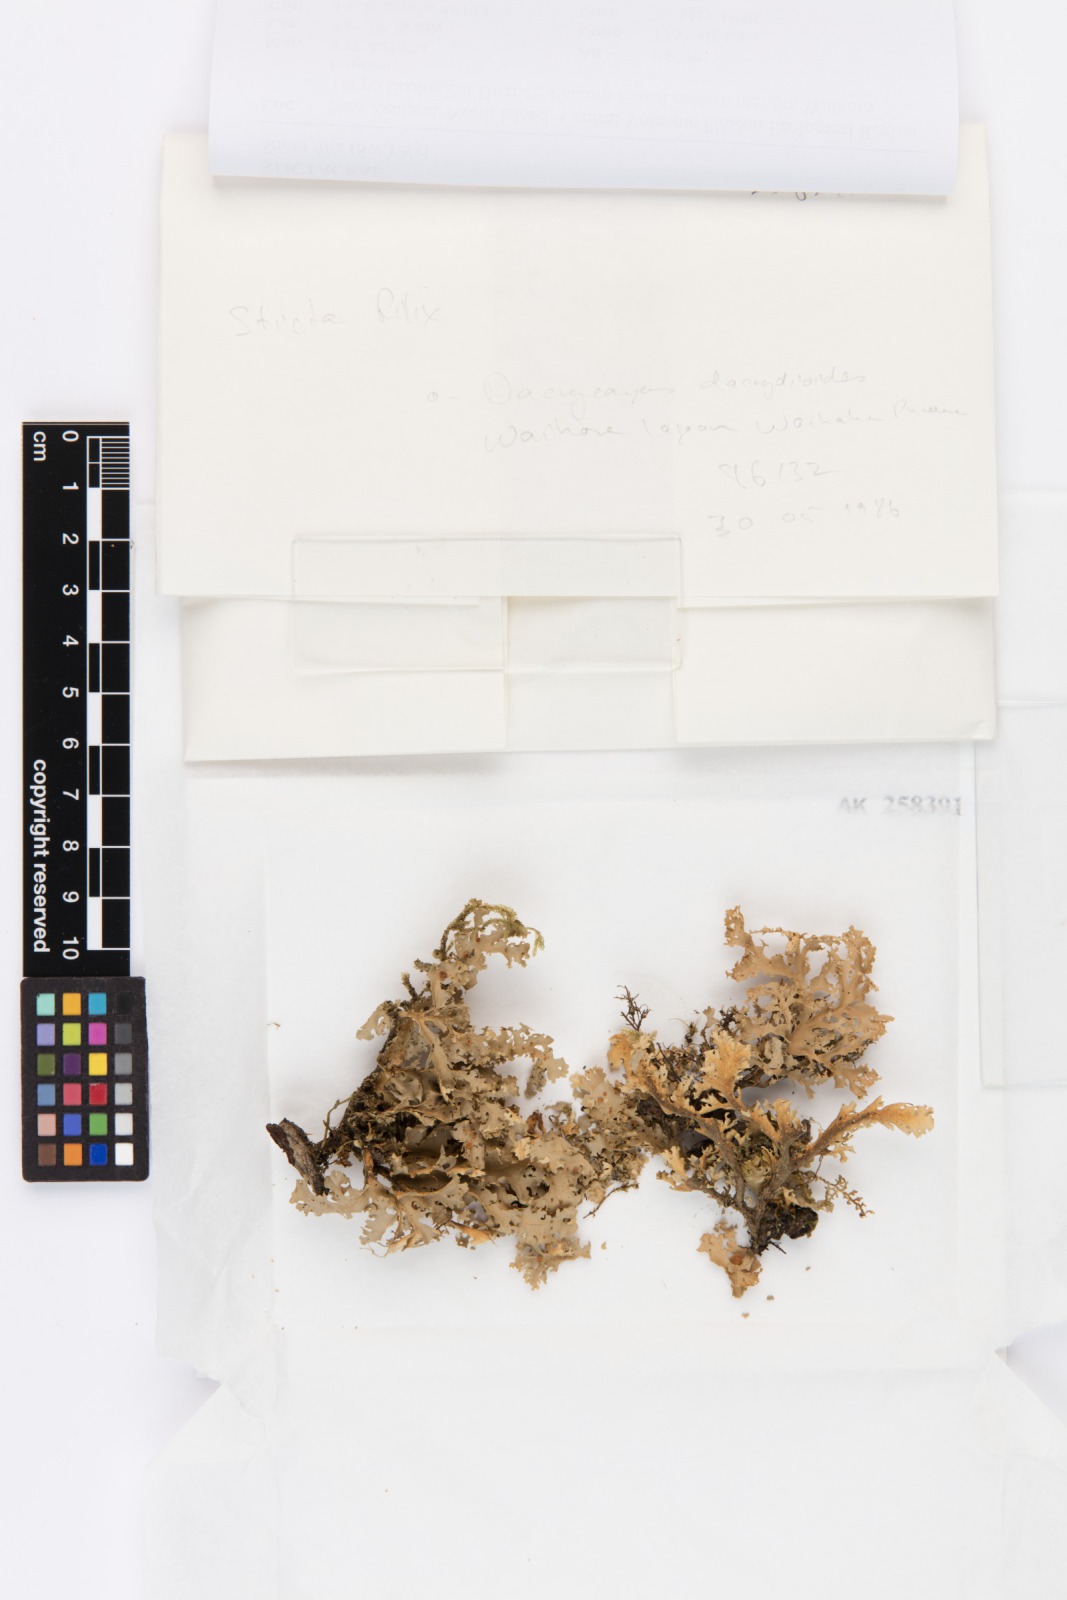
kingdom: Fungi
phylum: Ascomycota
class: Lecanoromycetes
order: Peltigerales
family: Lobariaceae
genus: Sticta
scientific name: Sticta filix
